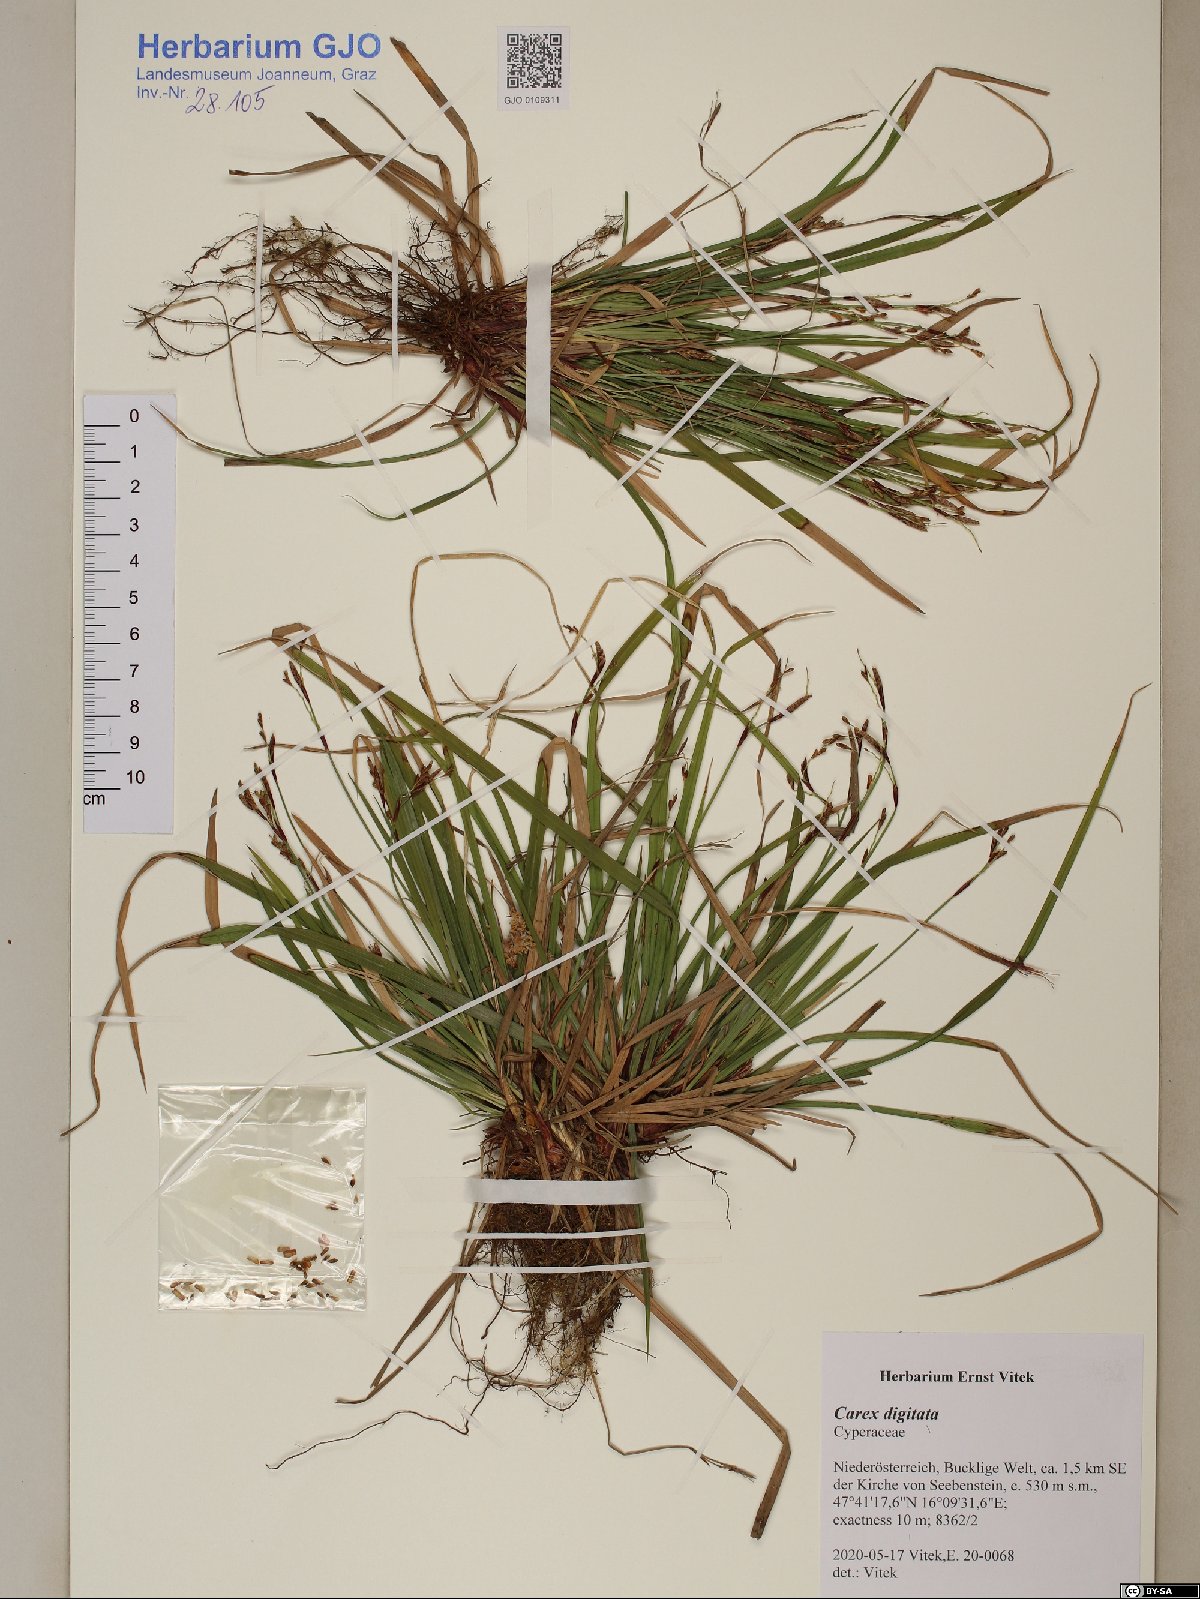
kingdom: Plantae
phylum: Tracheophyta
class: Liliopsida
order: Poales
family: Cyperaceae
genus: Carex
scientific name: Carex digitata
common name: Fingered sedge
